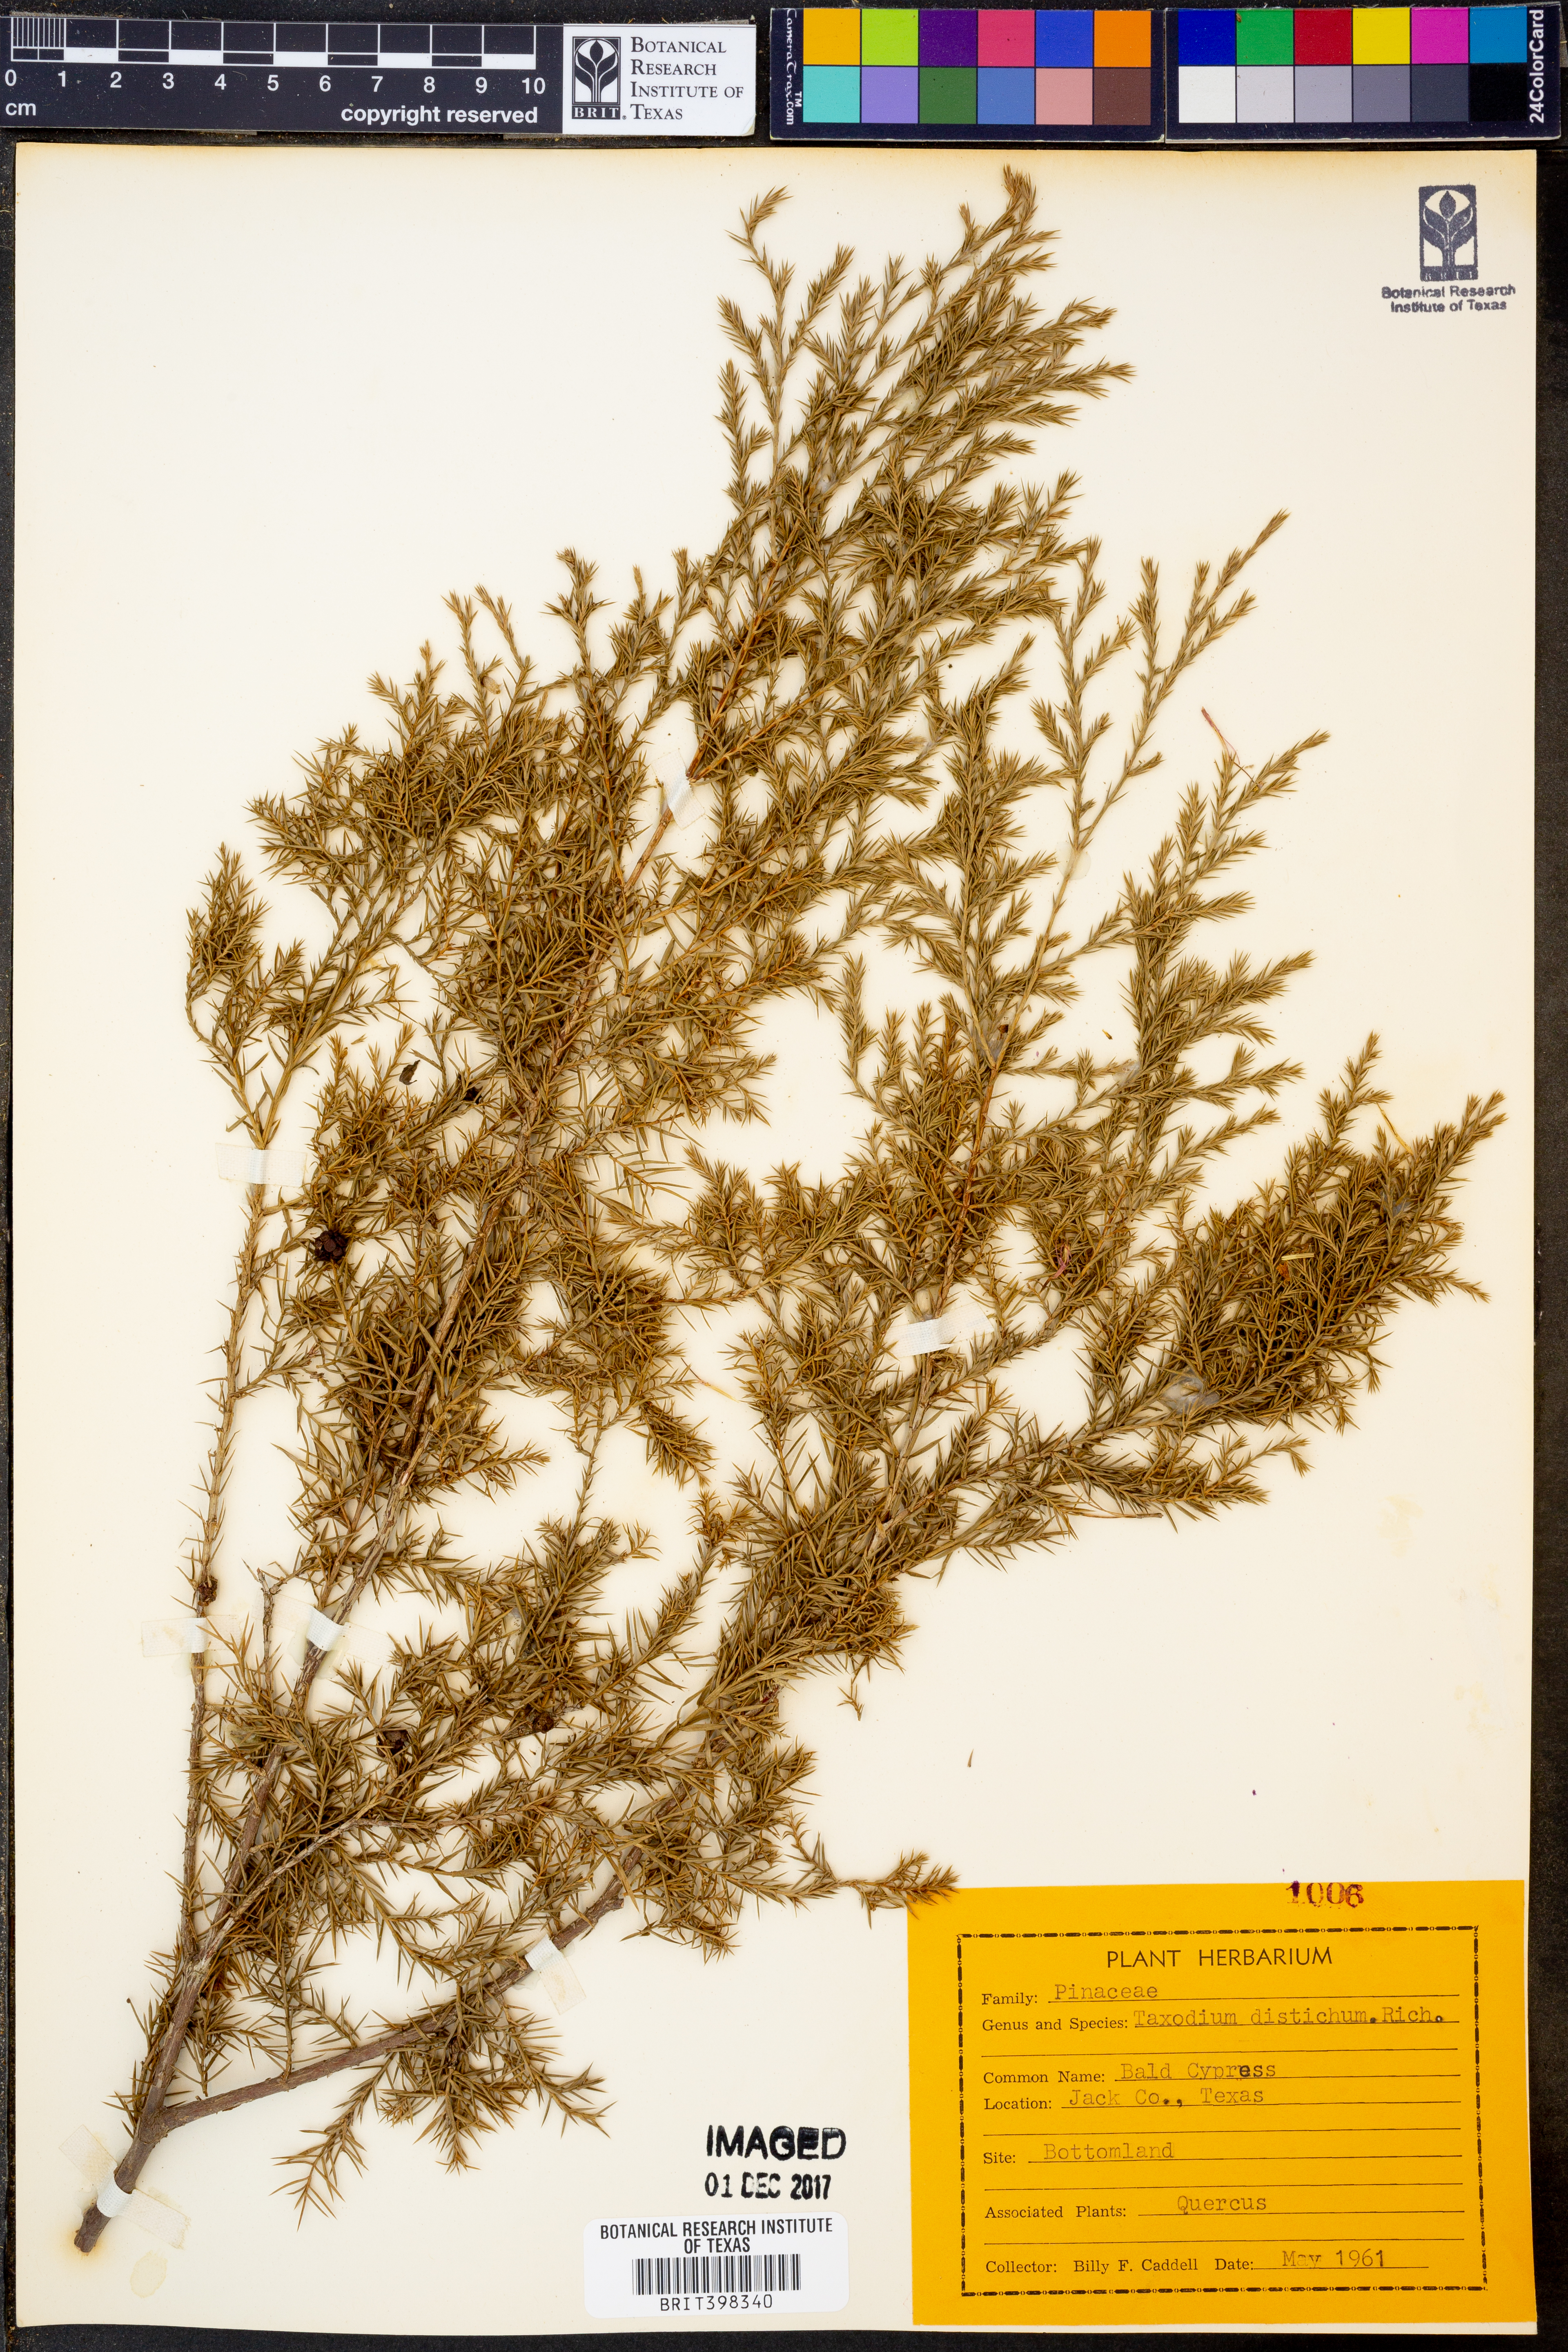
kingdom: Plantae
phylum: Tracheophyta
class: Pinopsida
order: Pinales
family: Cupressaceae
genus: Taxodium
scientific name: Taxodium distichum
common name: Bald cypress
